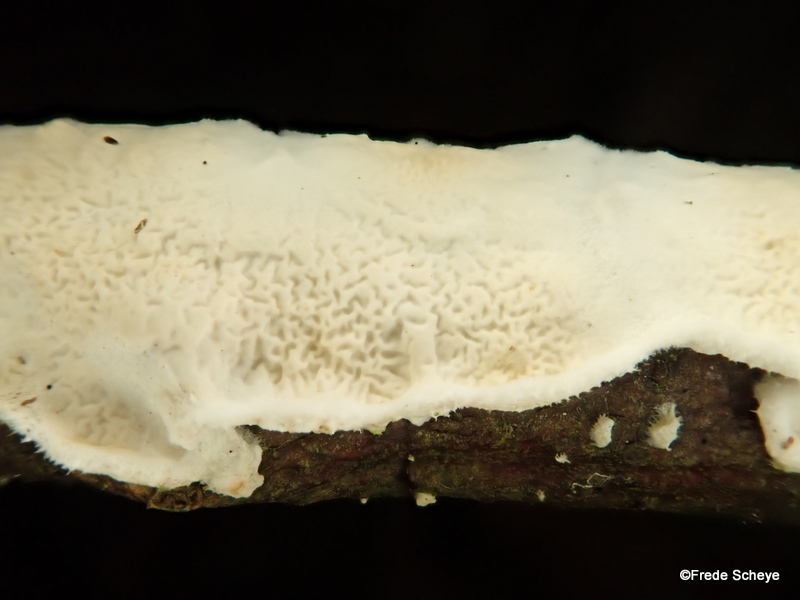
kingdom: Fungi
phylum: Basidiomycota
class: Agaricomycetes
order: Polyporales
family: Irpicaceae
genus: Byssomerulius
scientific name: Byssomerulius corium
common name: læder-åresvamp
